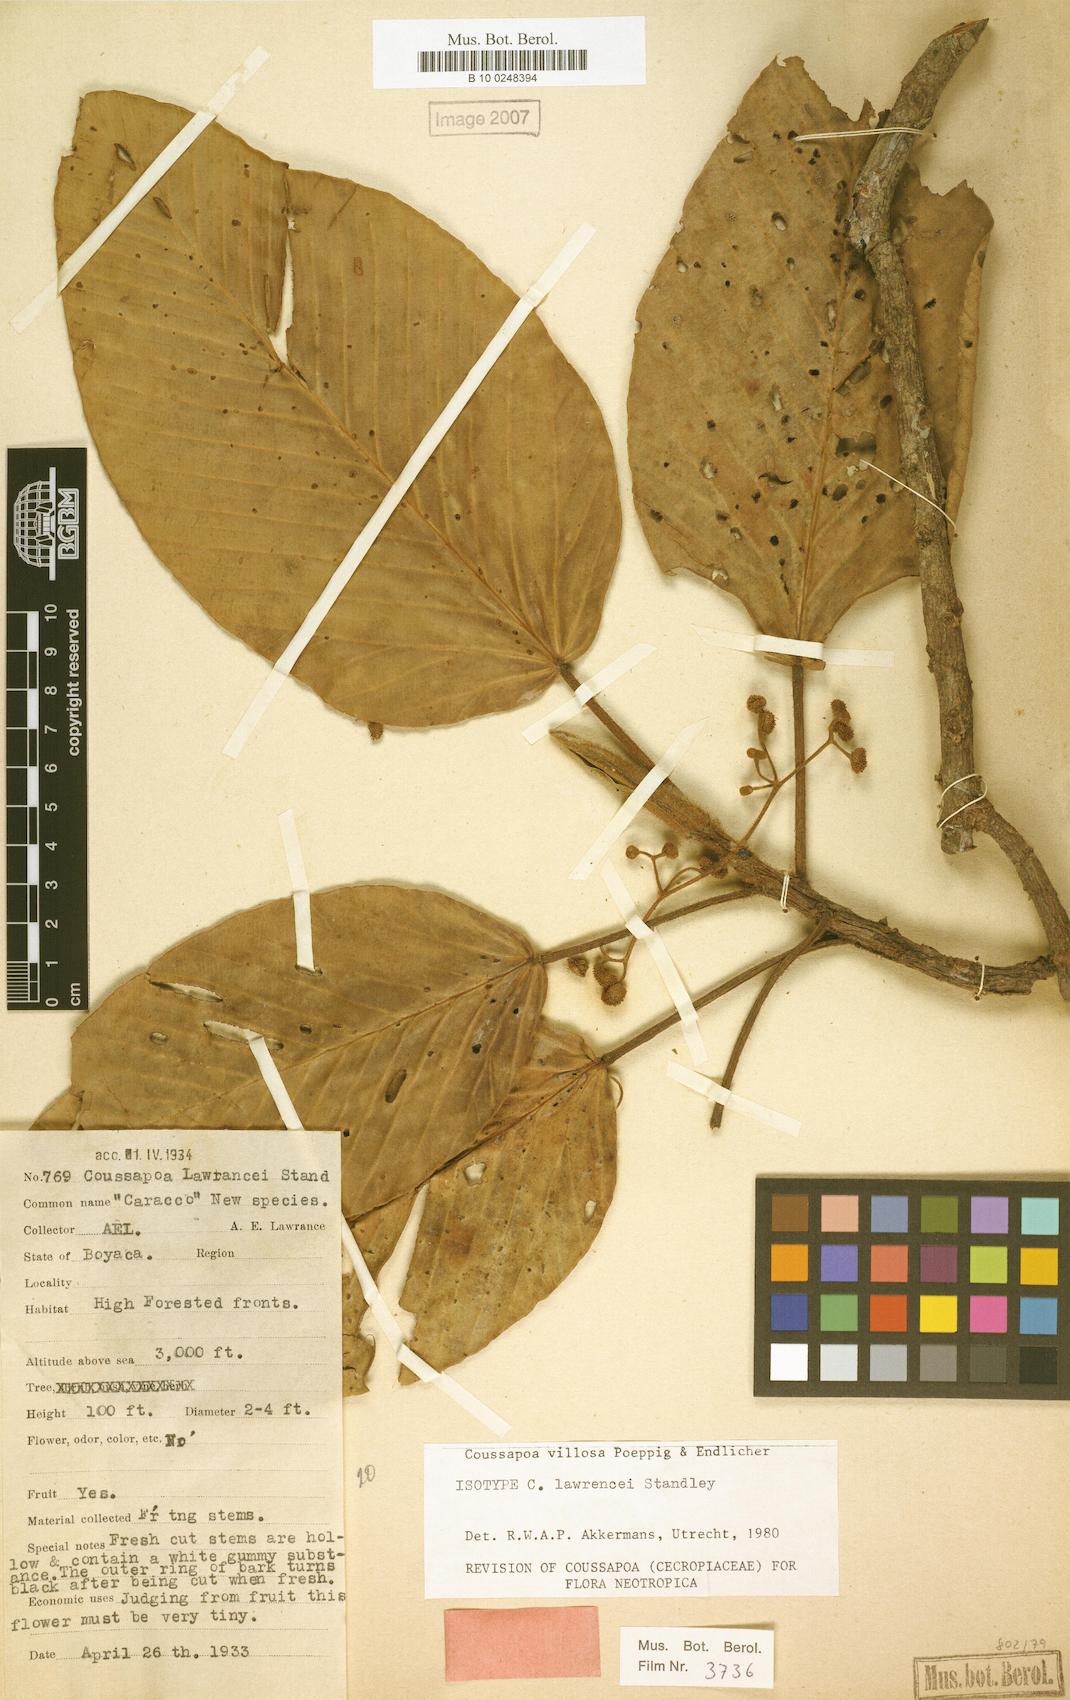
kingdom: Plantae
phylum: Tracheophyta
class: Magnoliopsida
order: Rosales
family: Urticaceae
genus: Coussapoa
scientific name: Coussapoa villosa
